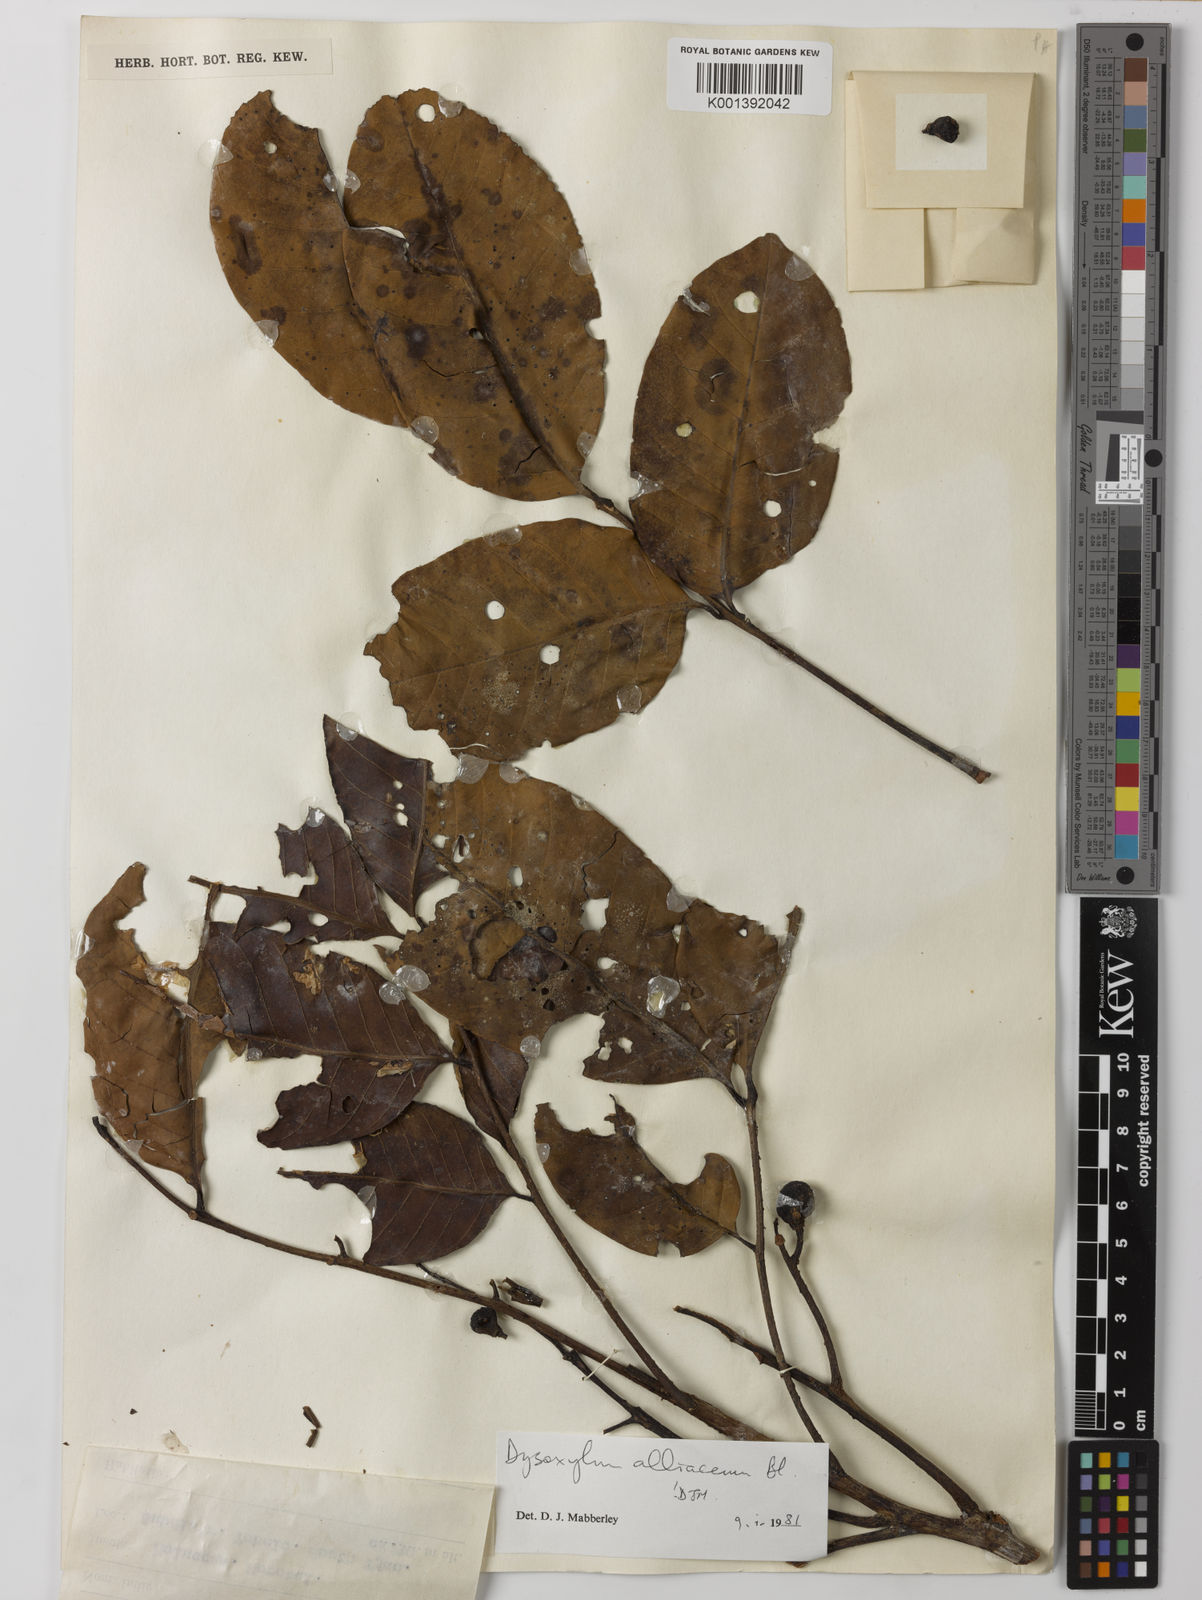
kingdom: Plantae
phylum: Tracheophyta
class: Magnoliopsida
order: Sapindales
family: Meliaceae
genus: Prasoxylon
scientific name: Prasoxylon alliaceum
